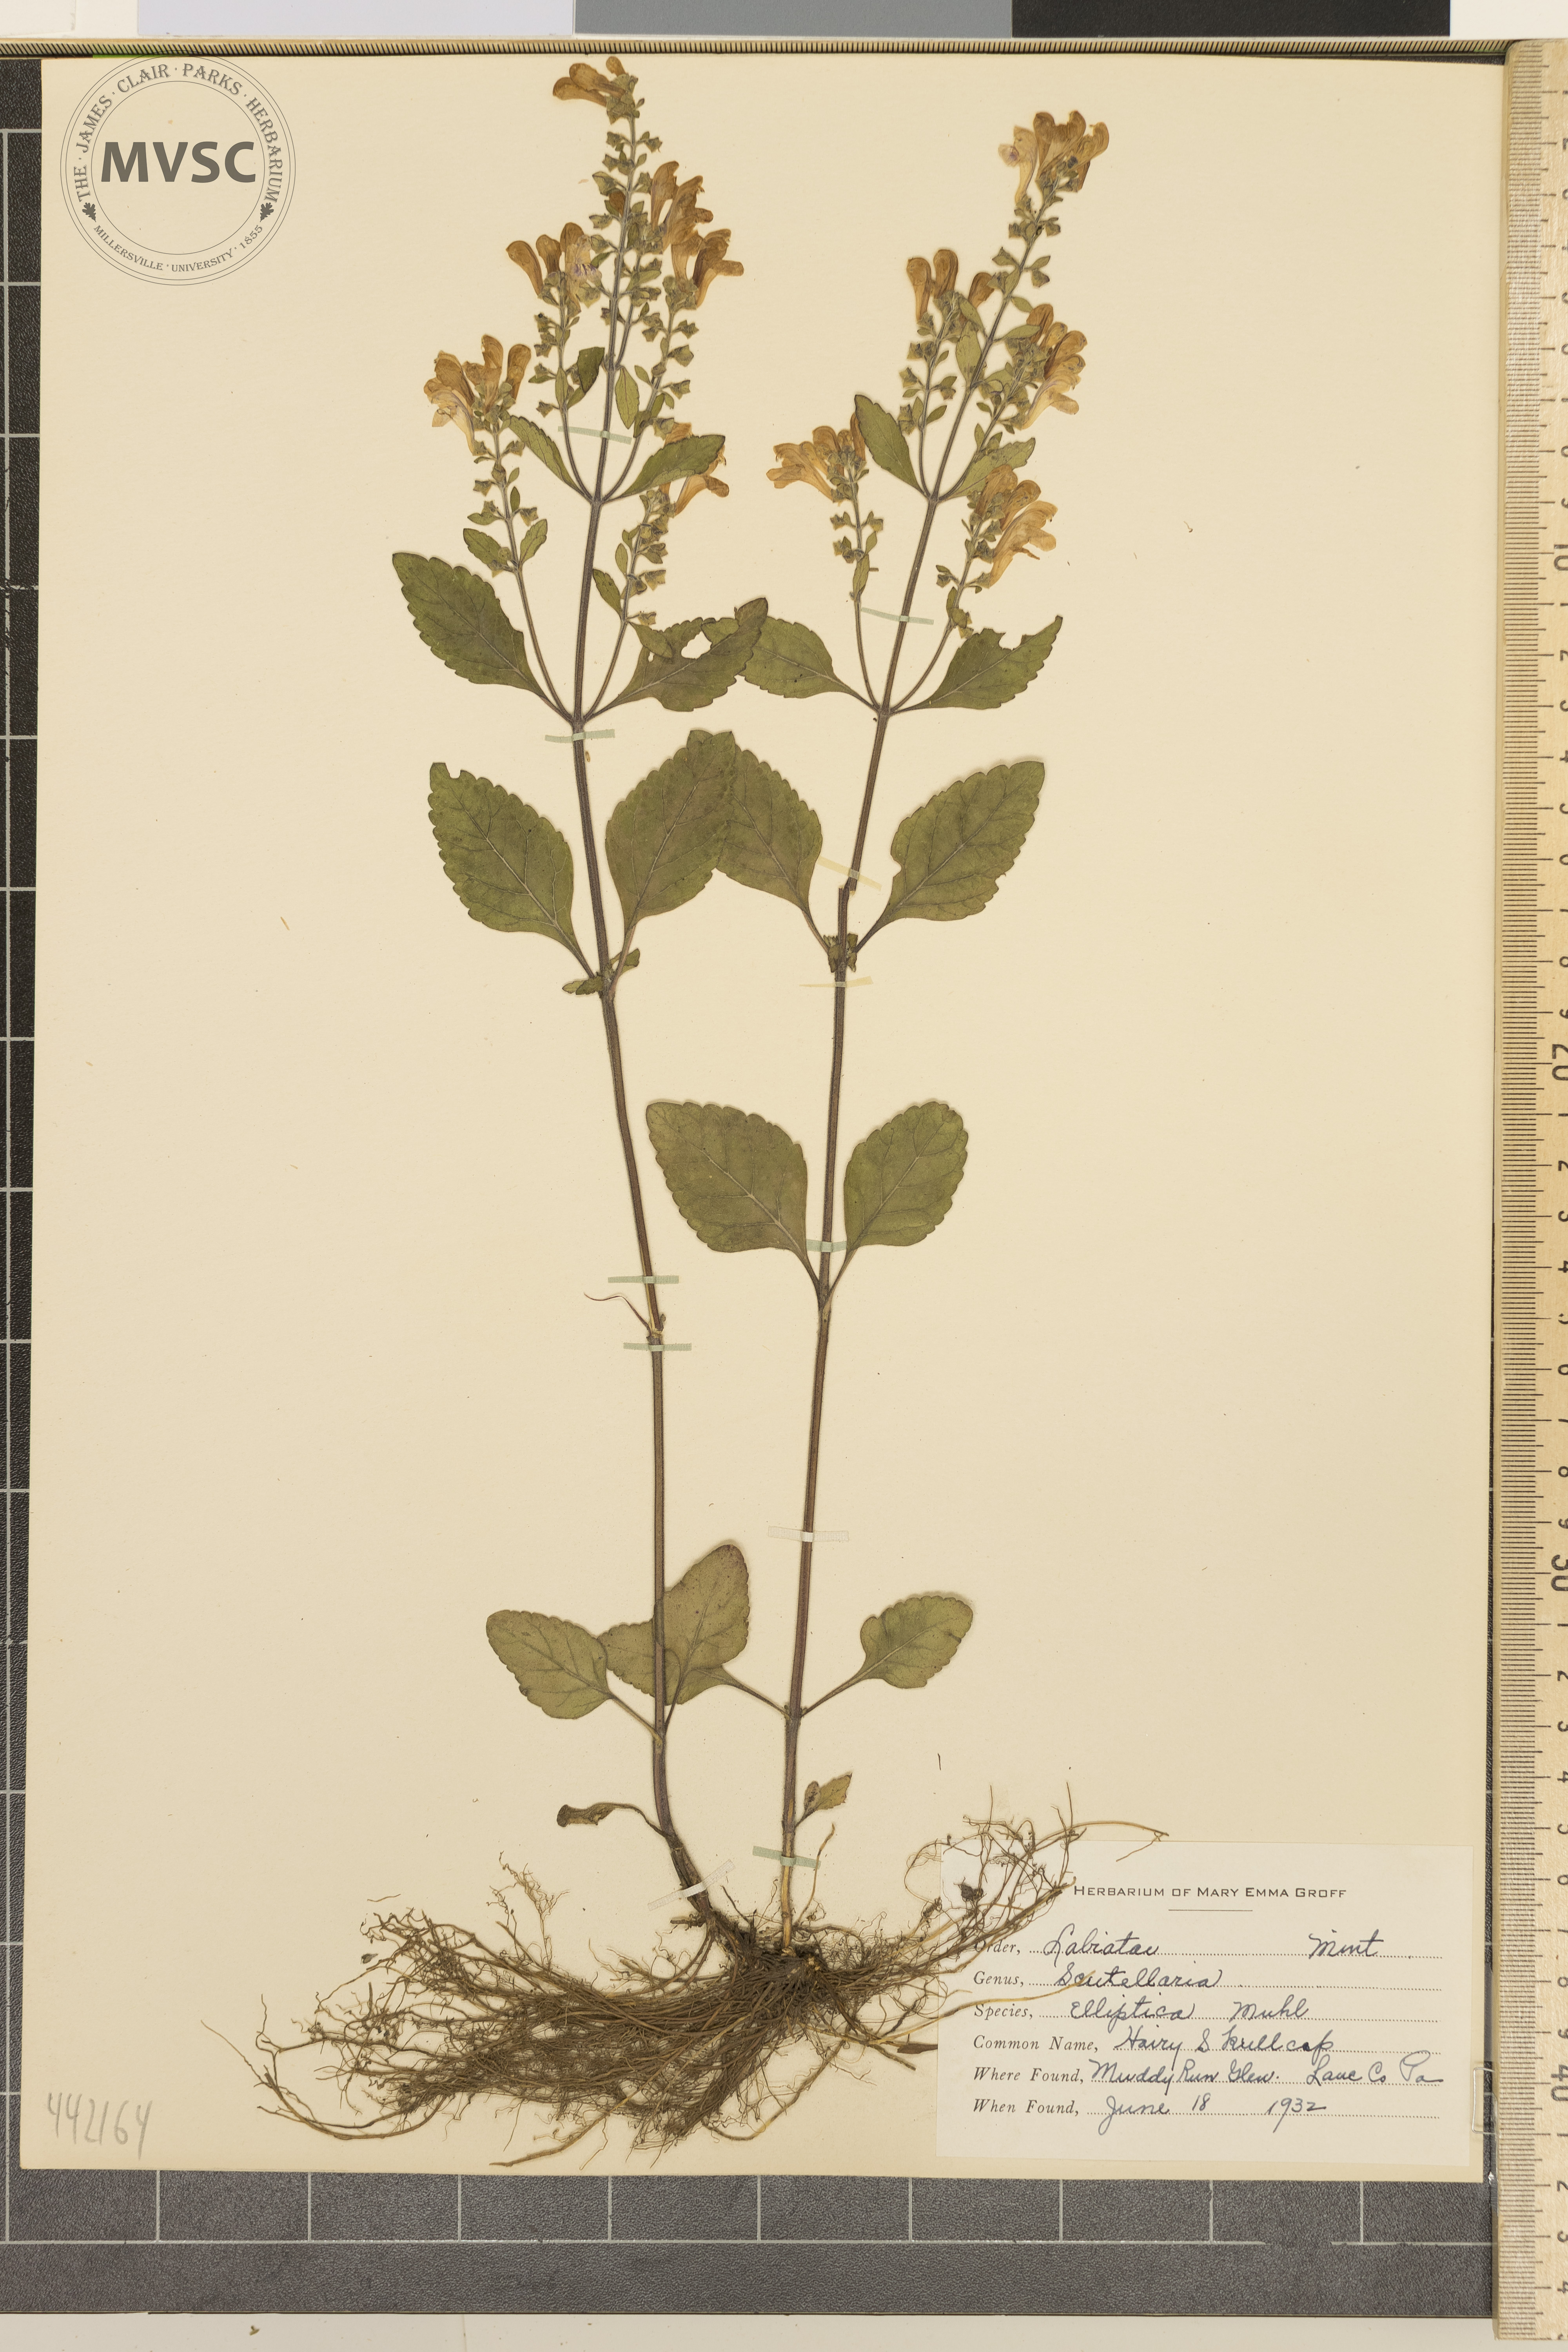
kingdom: Plantae
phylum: Tracheophyta
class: Magnoliopsida
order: Lamiales
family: Lamiaceae
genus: Scutellaria
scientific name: Scutellaria elliptica
